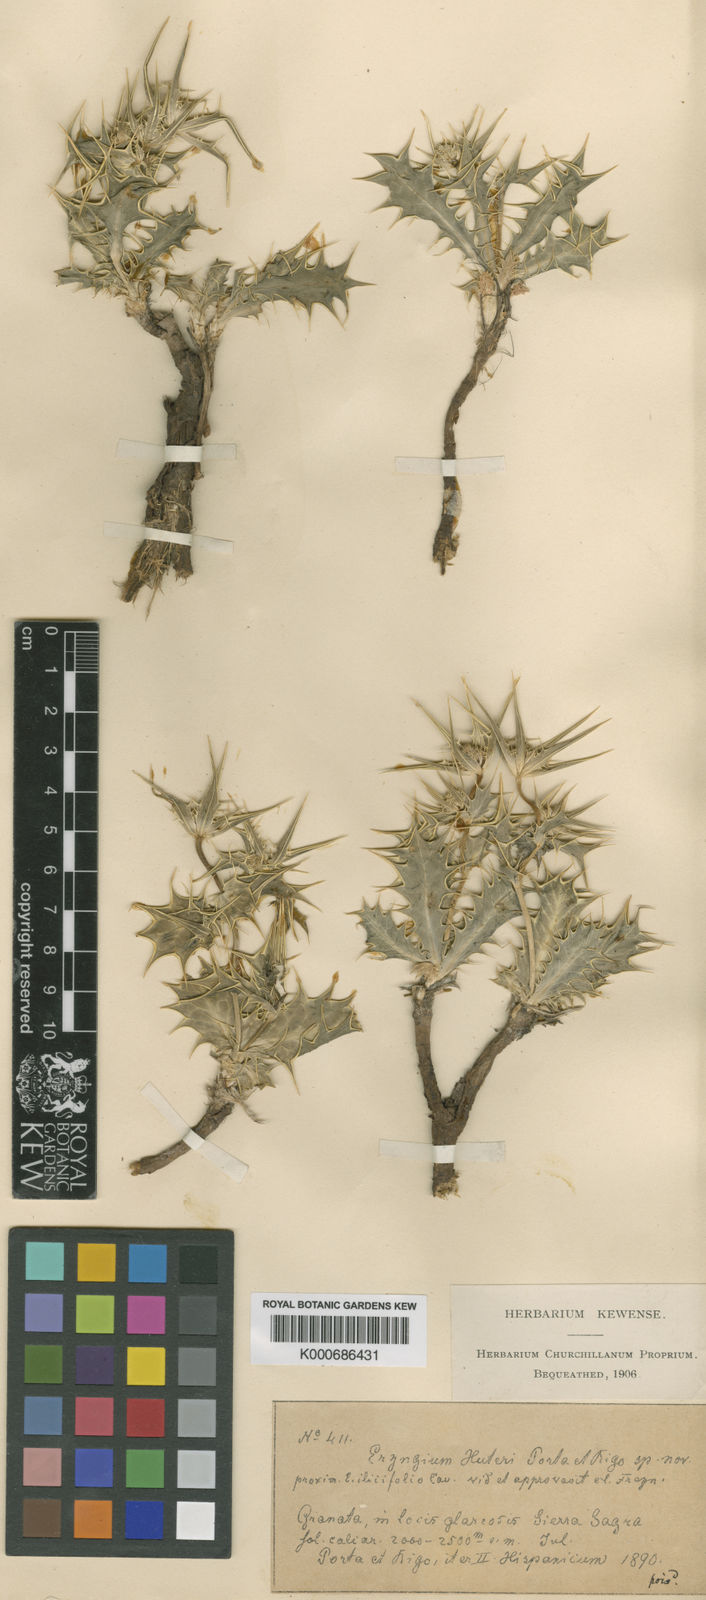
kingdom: Plantae
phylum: Tracheophyta
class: Magnoliopsida
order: Apiales
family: Apiaceae
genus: Eryngium
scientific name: Eryngium aquifolium
